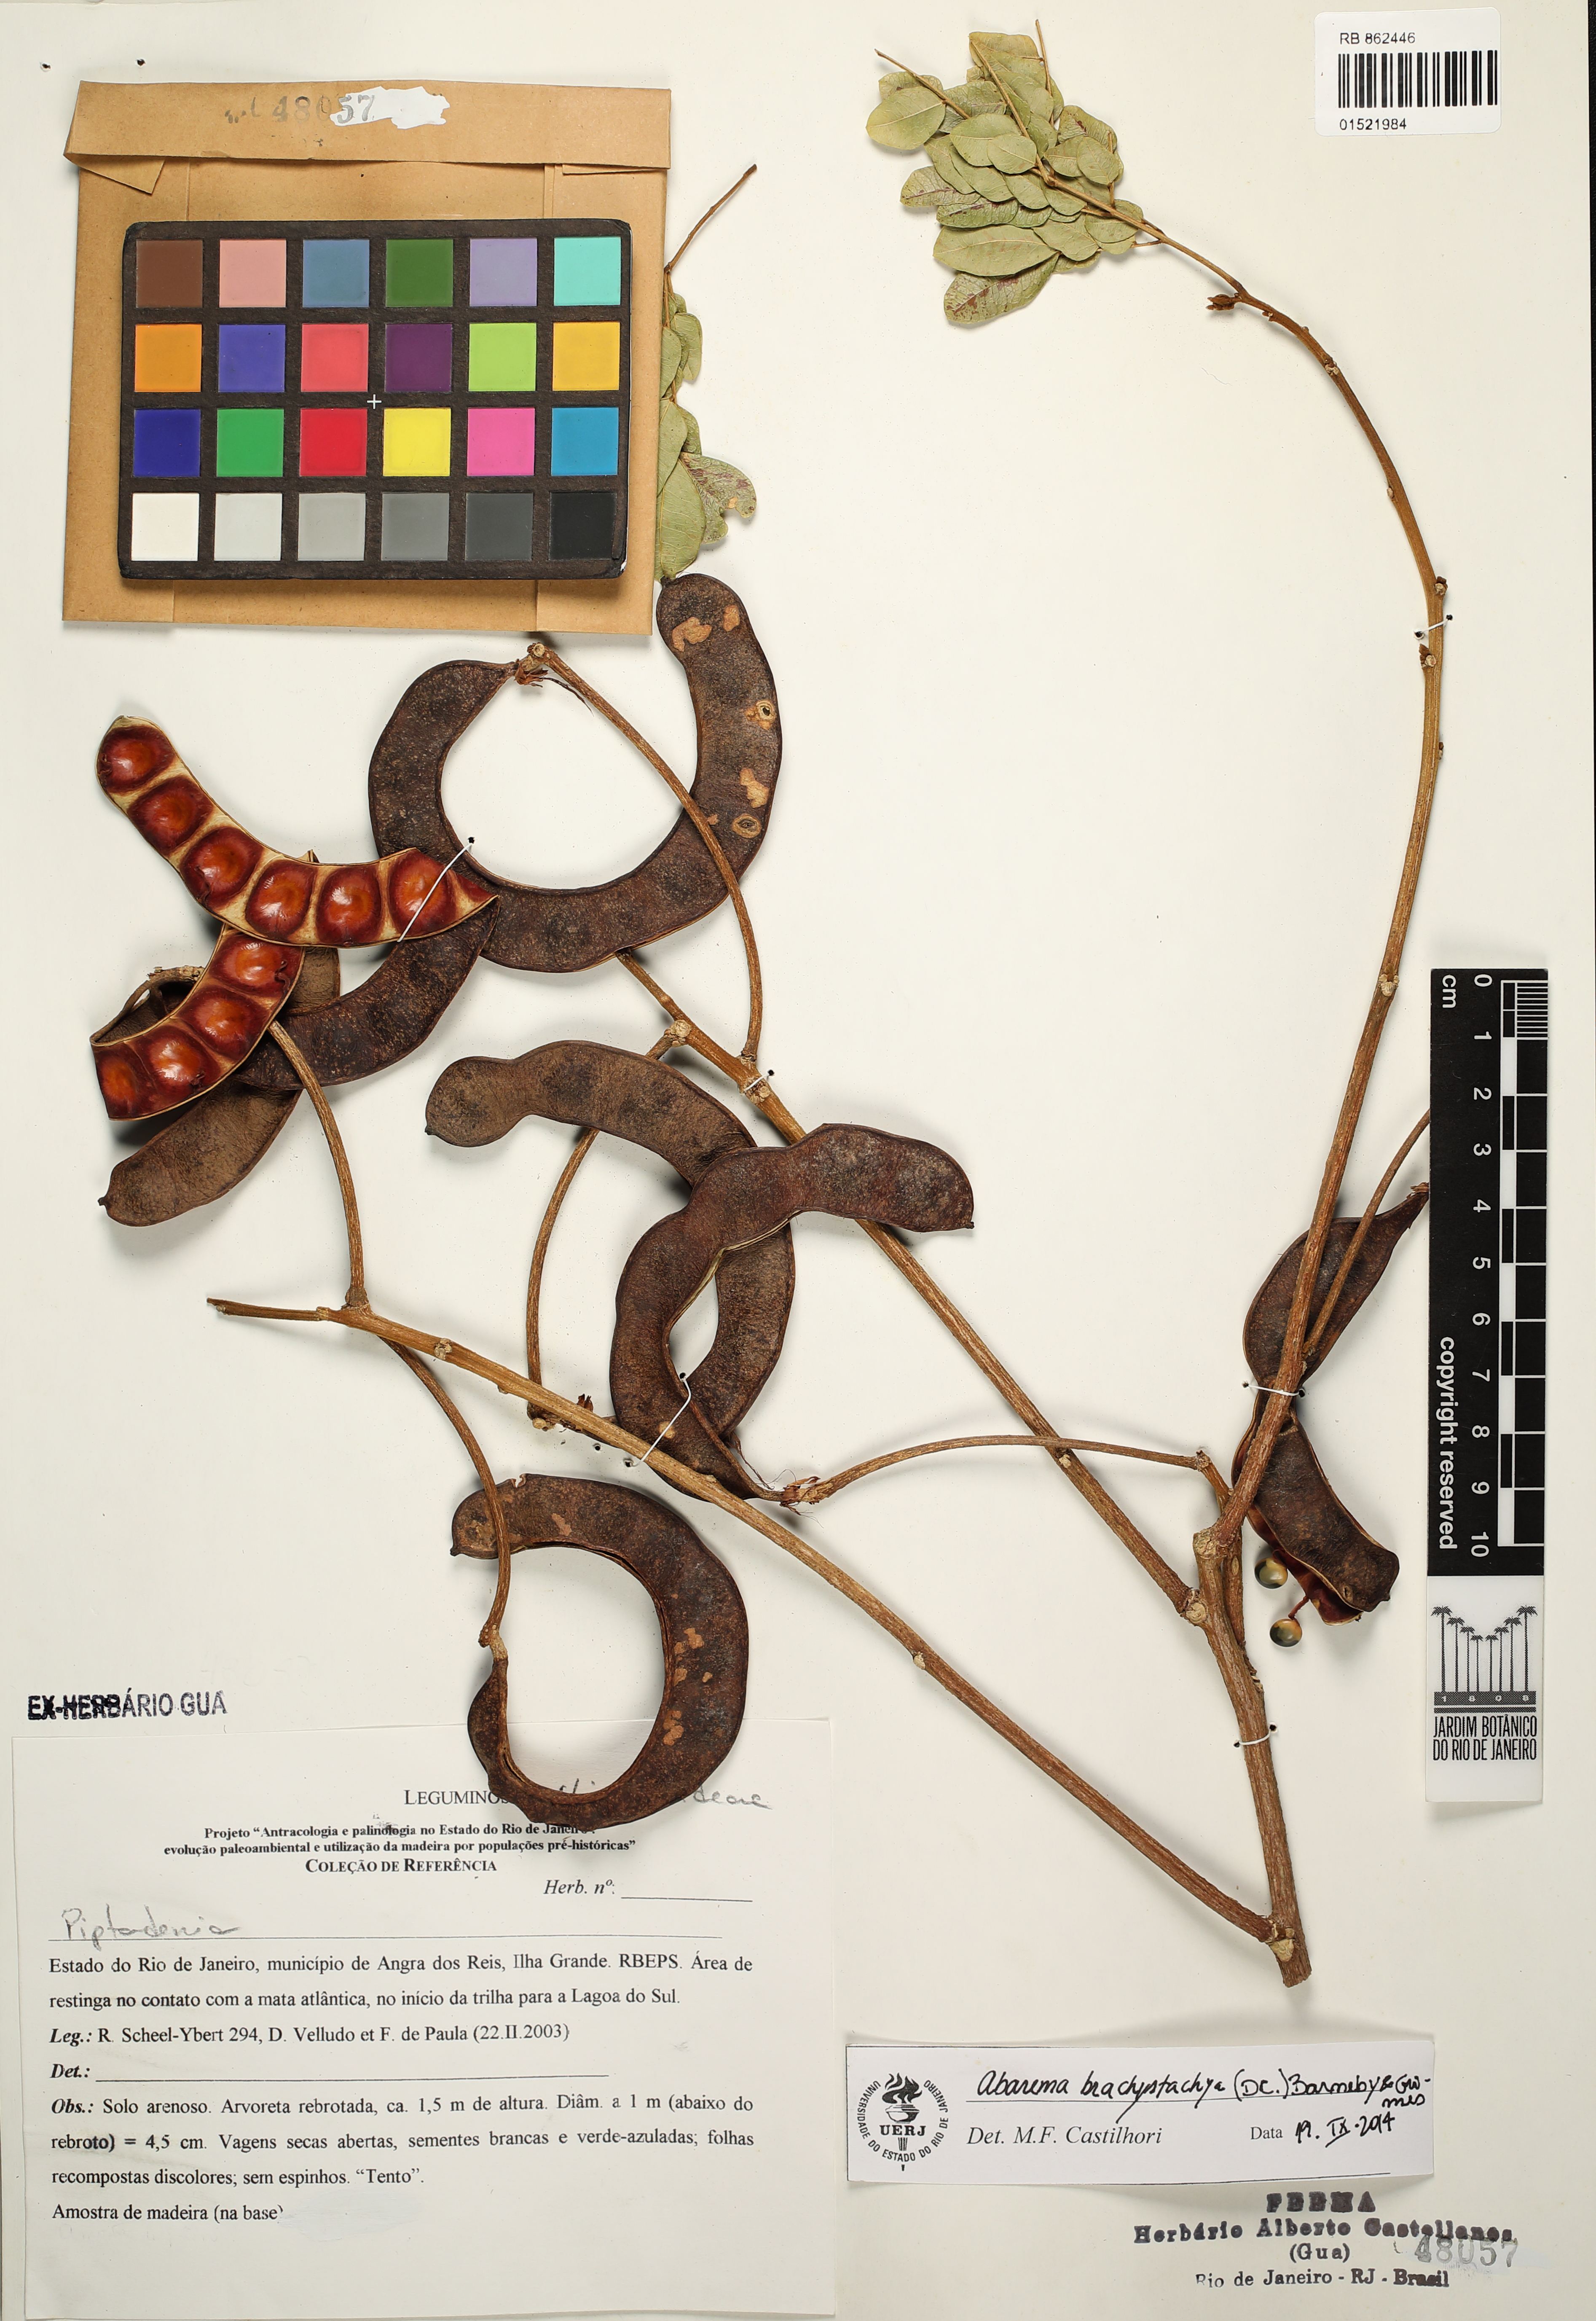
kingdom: Plantae
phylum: Tracheophyta
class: Magnoliopsida
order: Fabales
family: Fabaceae
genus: Jupunba
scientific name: Jupunba brachystachya
